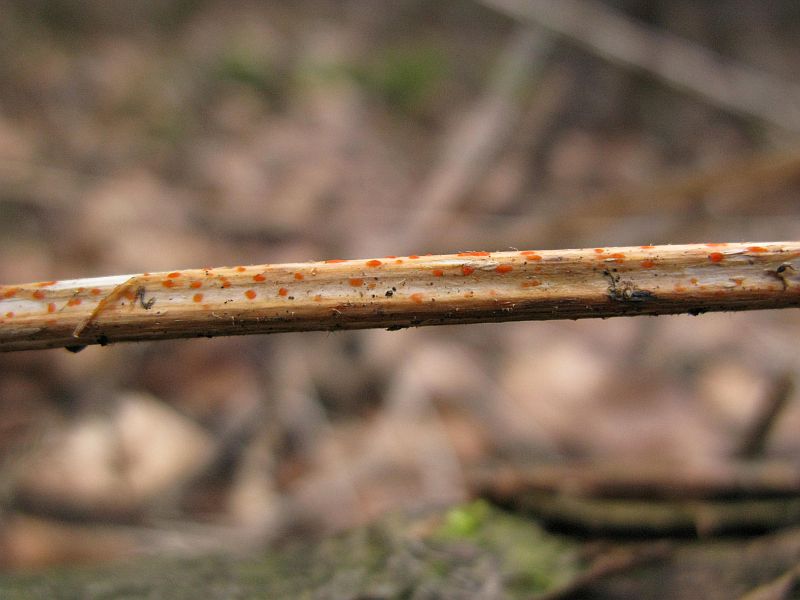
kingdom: Fungi
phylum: Ascomycota
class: Leotiomycetes
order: Helotiales
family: Calloriaceae
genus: Calloria
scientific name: Calloria urticae
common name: nælde-orangeskive
